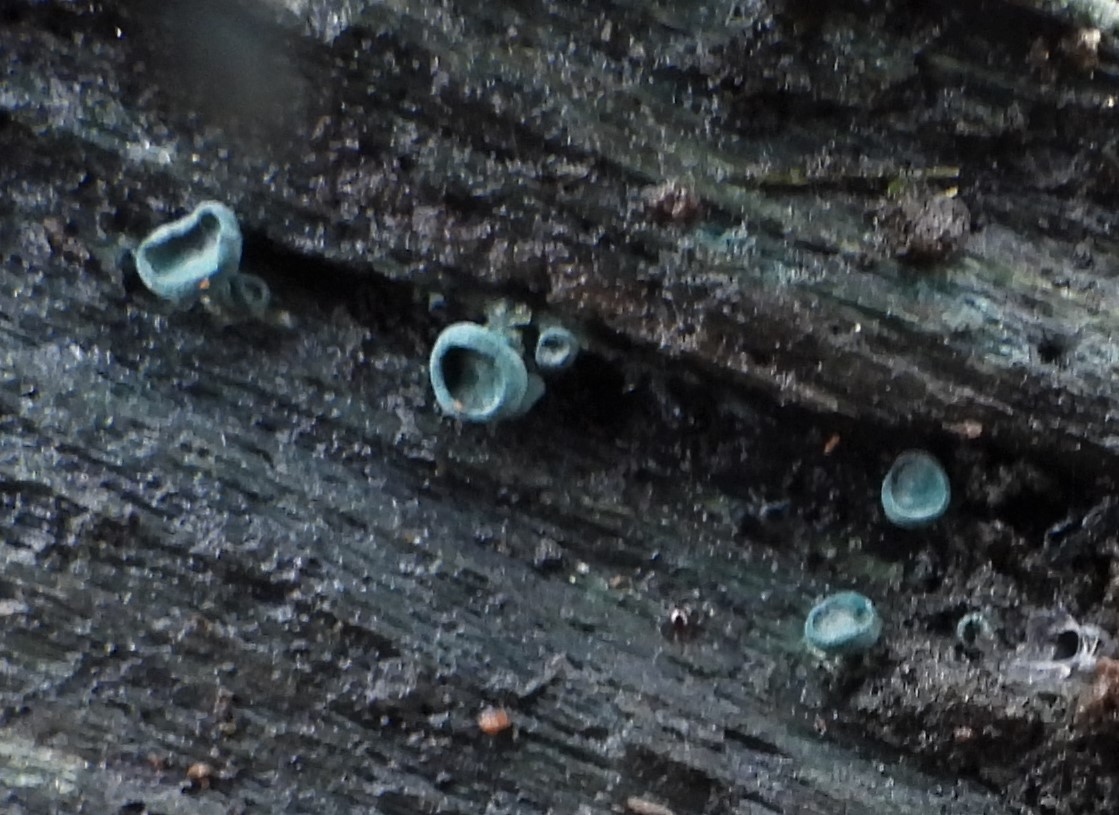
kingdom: Fungi
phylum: Ascomycota
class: Leotiomycetes
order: Helotiales
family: Chlorociboriaceae
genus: Chlorociboria
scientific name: Chlorociboria aeruginascens
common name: almindelig grønskive
